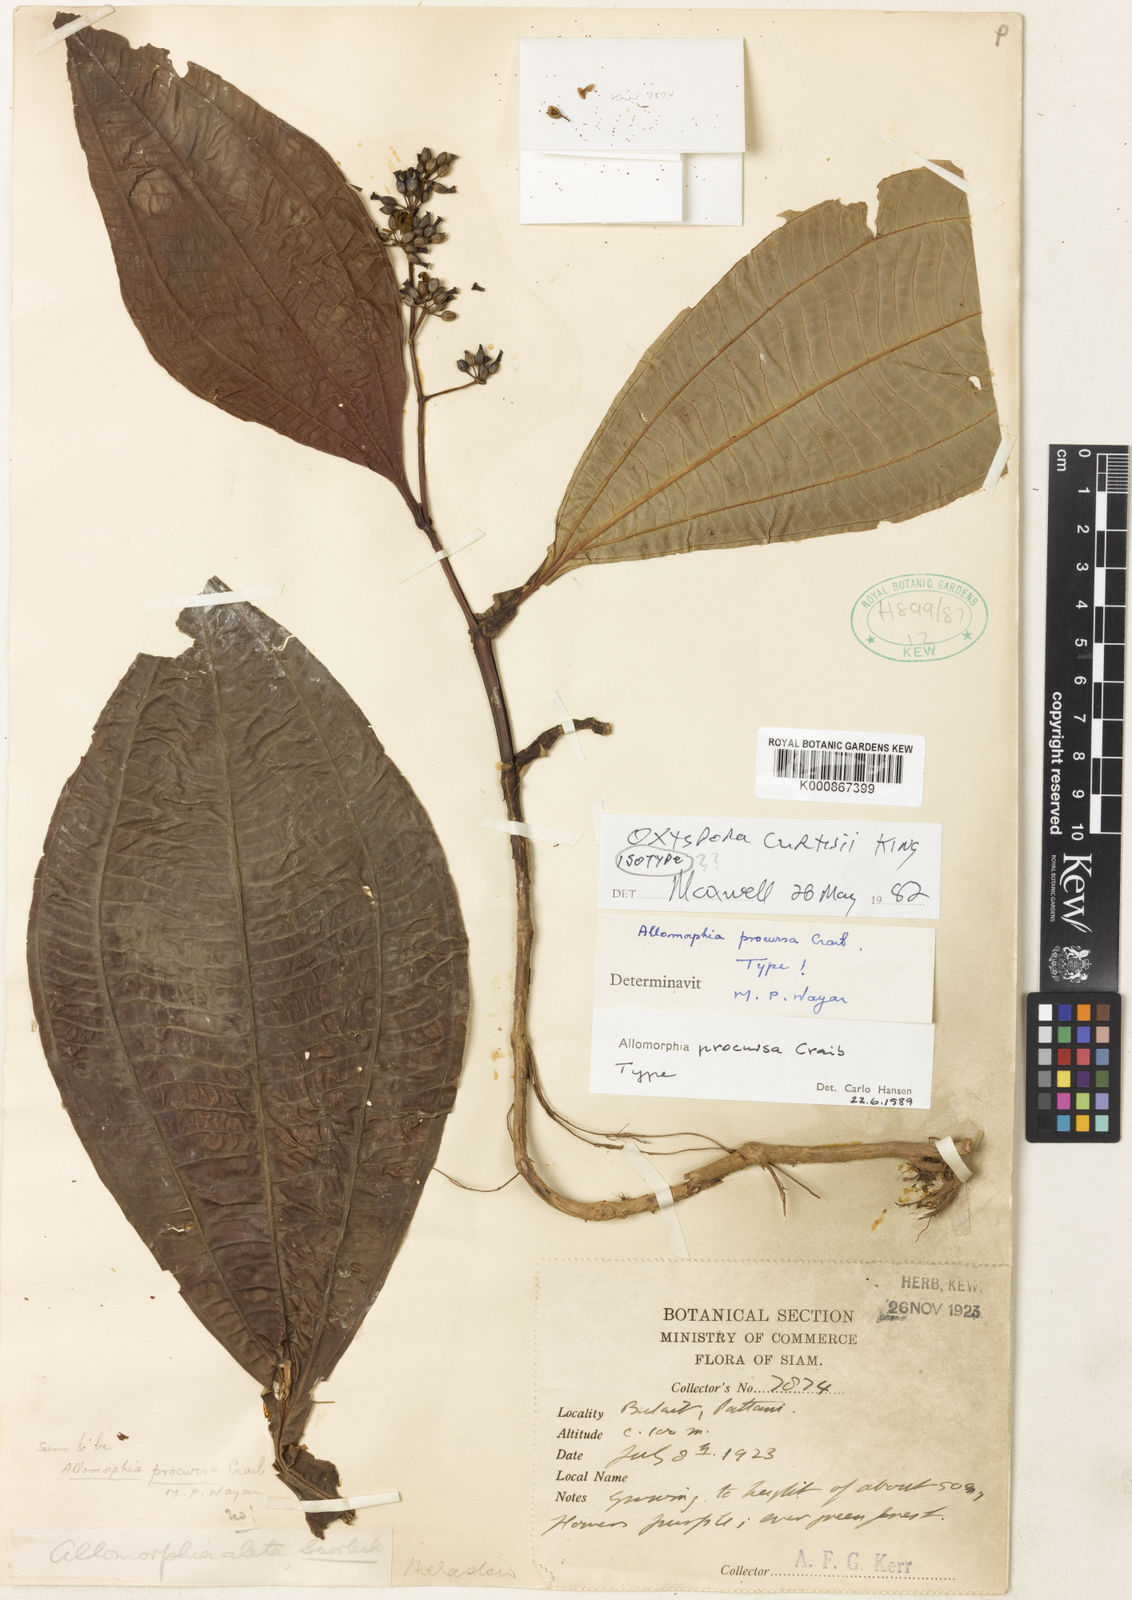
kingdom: Plantae
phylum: Tracheophyta
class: Magnoliopsida
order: Myrtales
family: Melastomataceae
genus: Allomorphia
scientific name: Allomorphia curtisii
